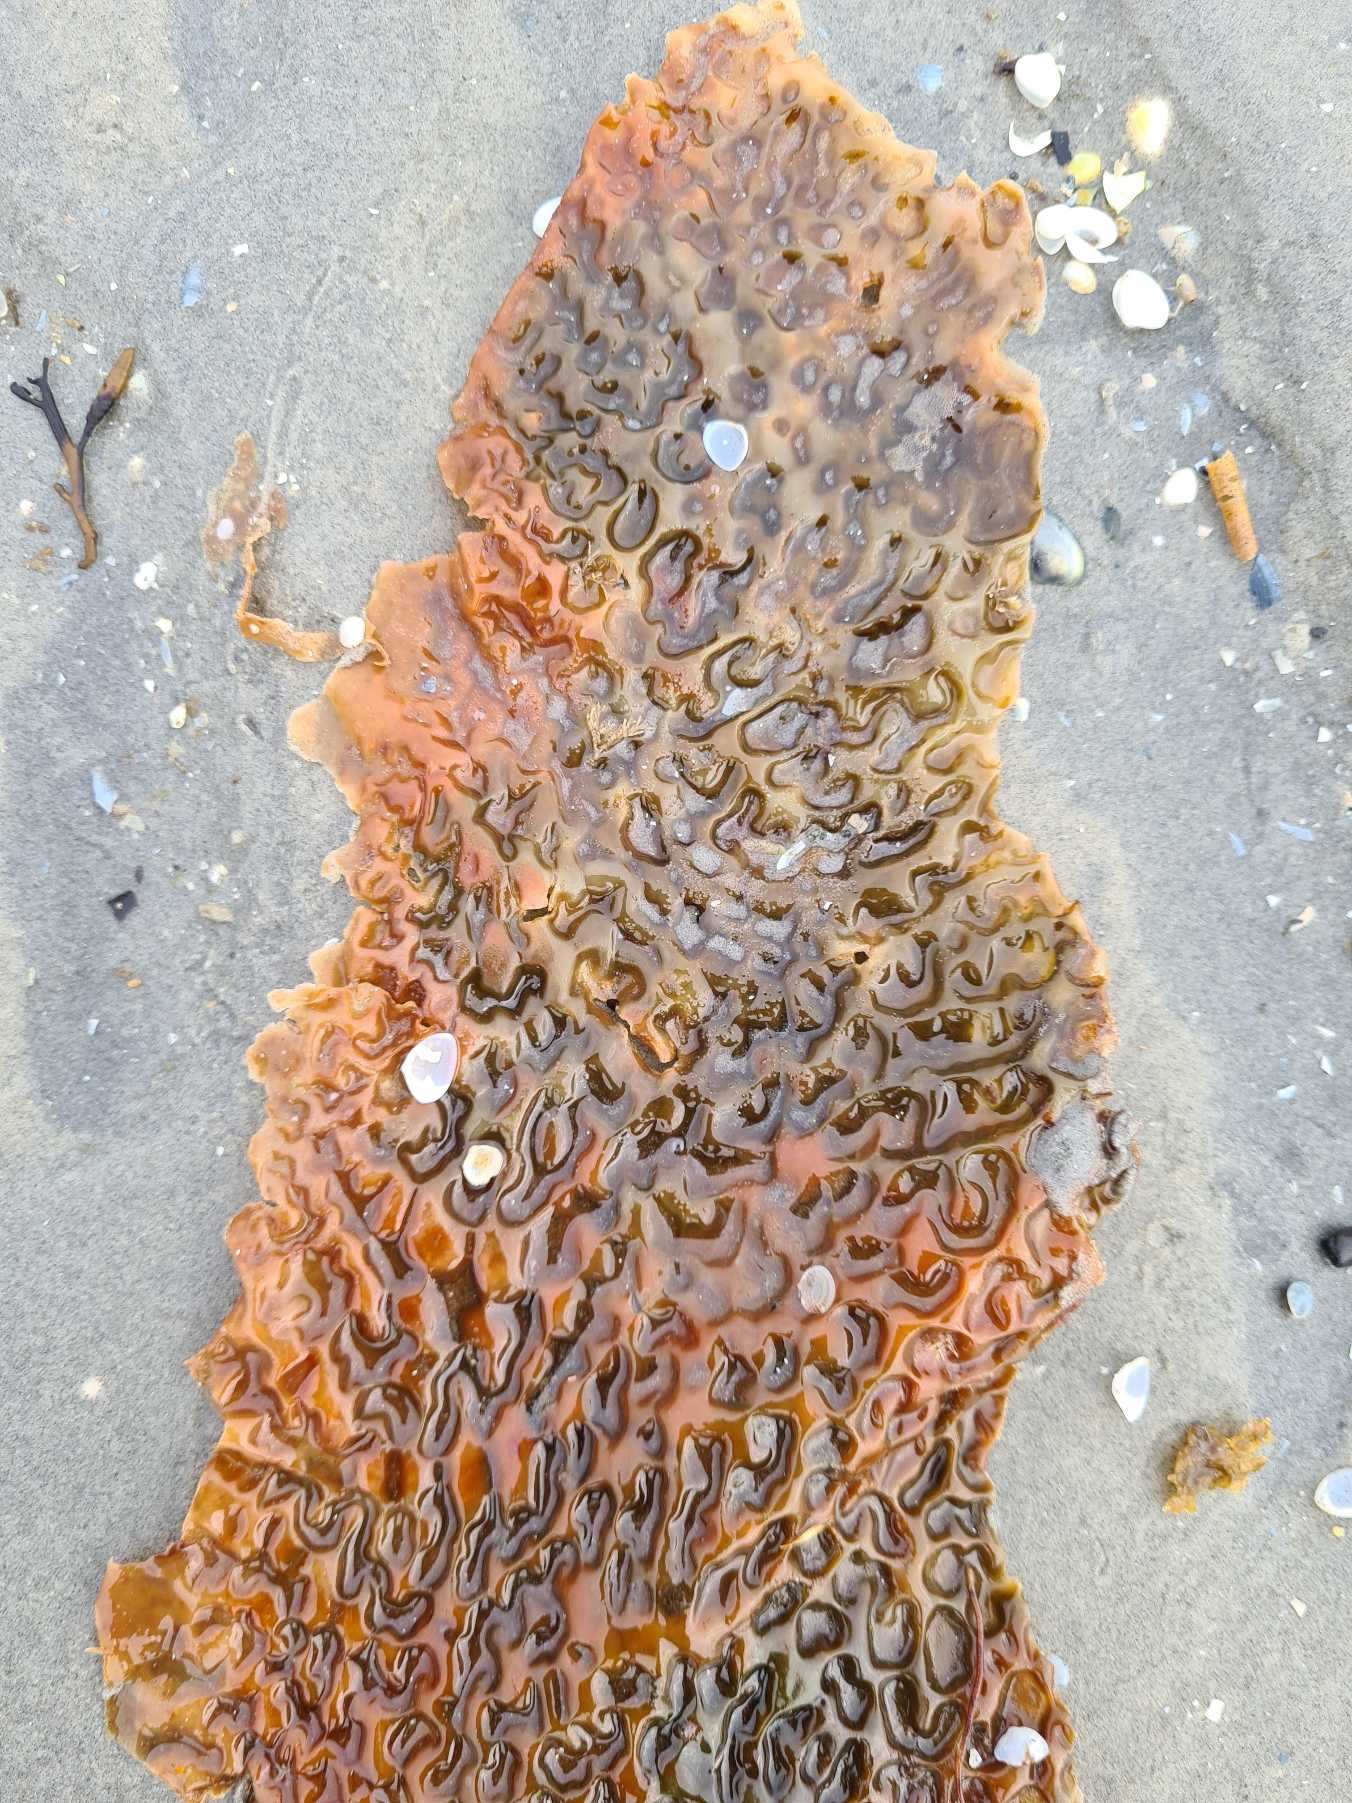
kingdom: Chromista
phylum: Ochrophyta
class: Phaeophyceae
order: Laminariales
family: Laminariaceae
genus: Saccharina
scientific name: Saccharina latissima
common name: Sukkertang
